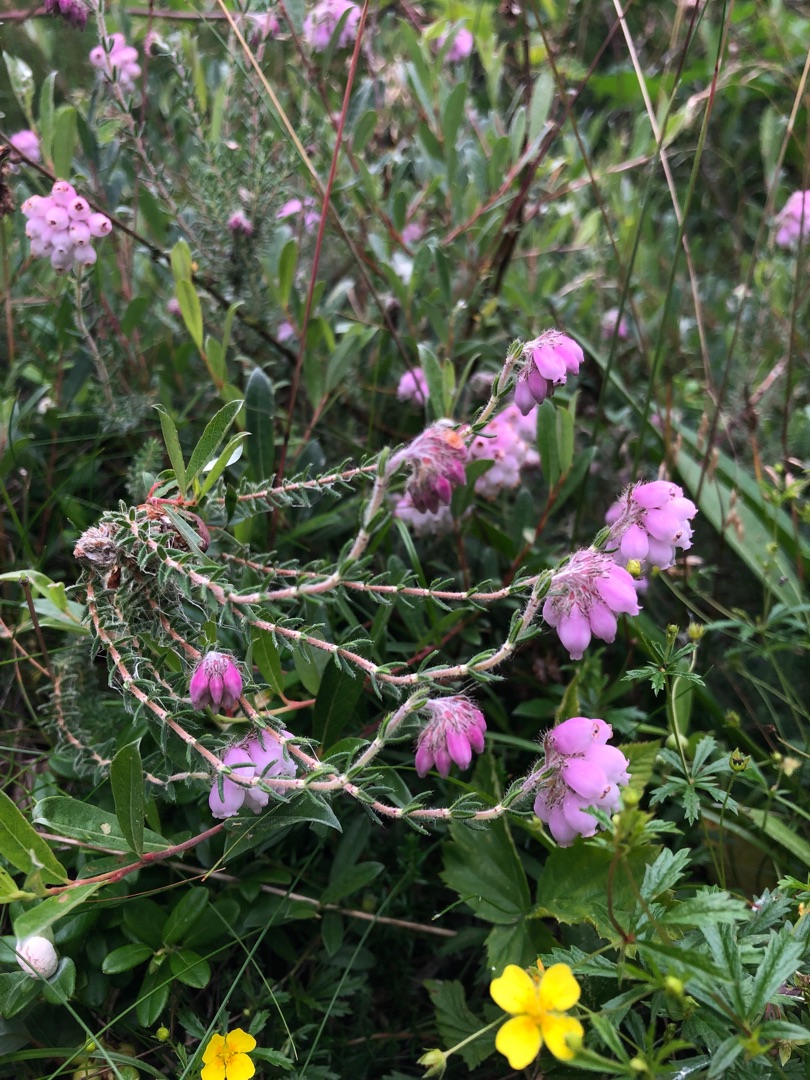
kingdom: Plantae
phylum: Tracheophyta
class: Magnoliopsida
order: Ericales
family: Ericaceae
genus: Erica
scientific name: Erica tetralix
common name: Klokkelyng
